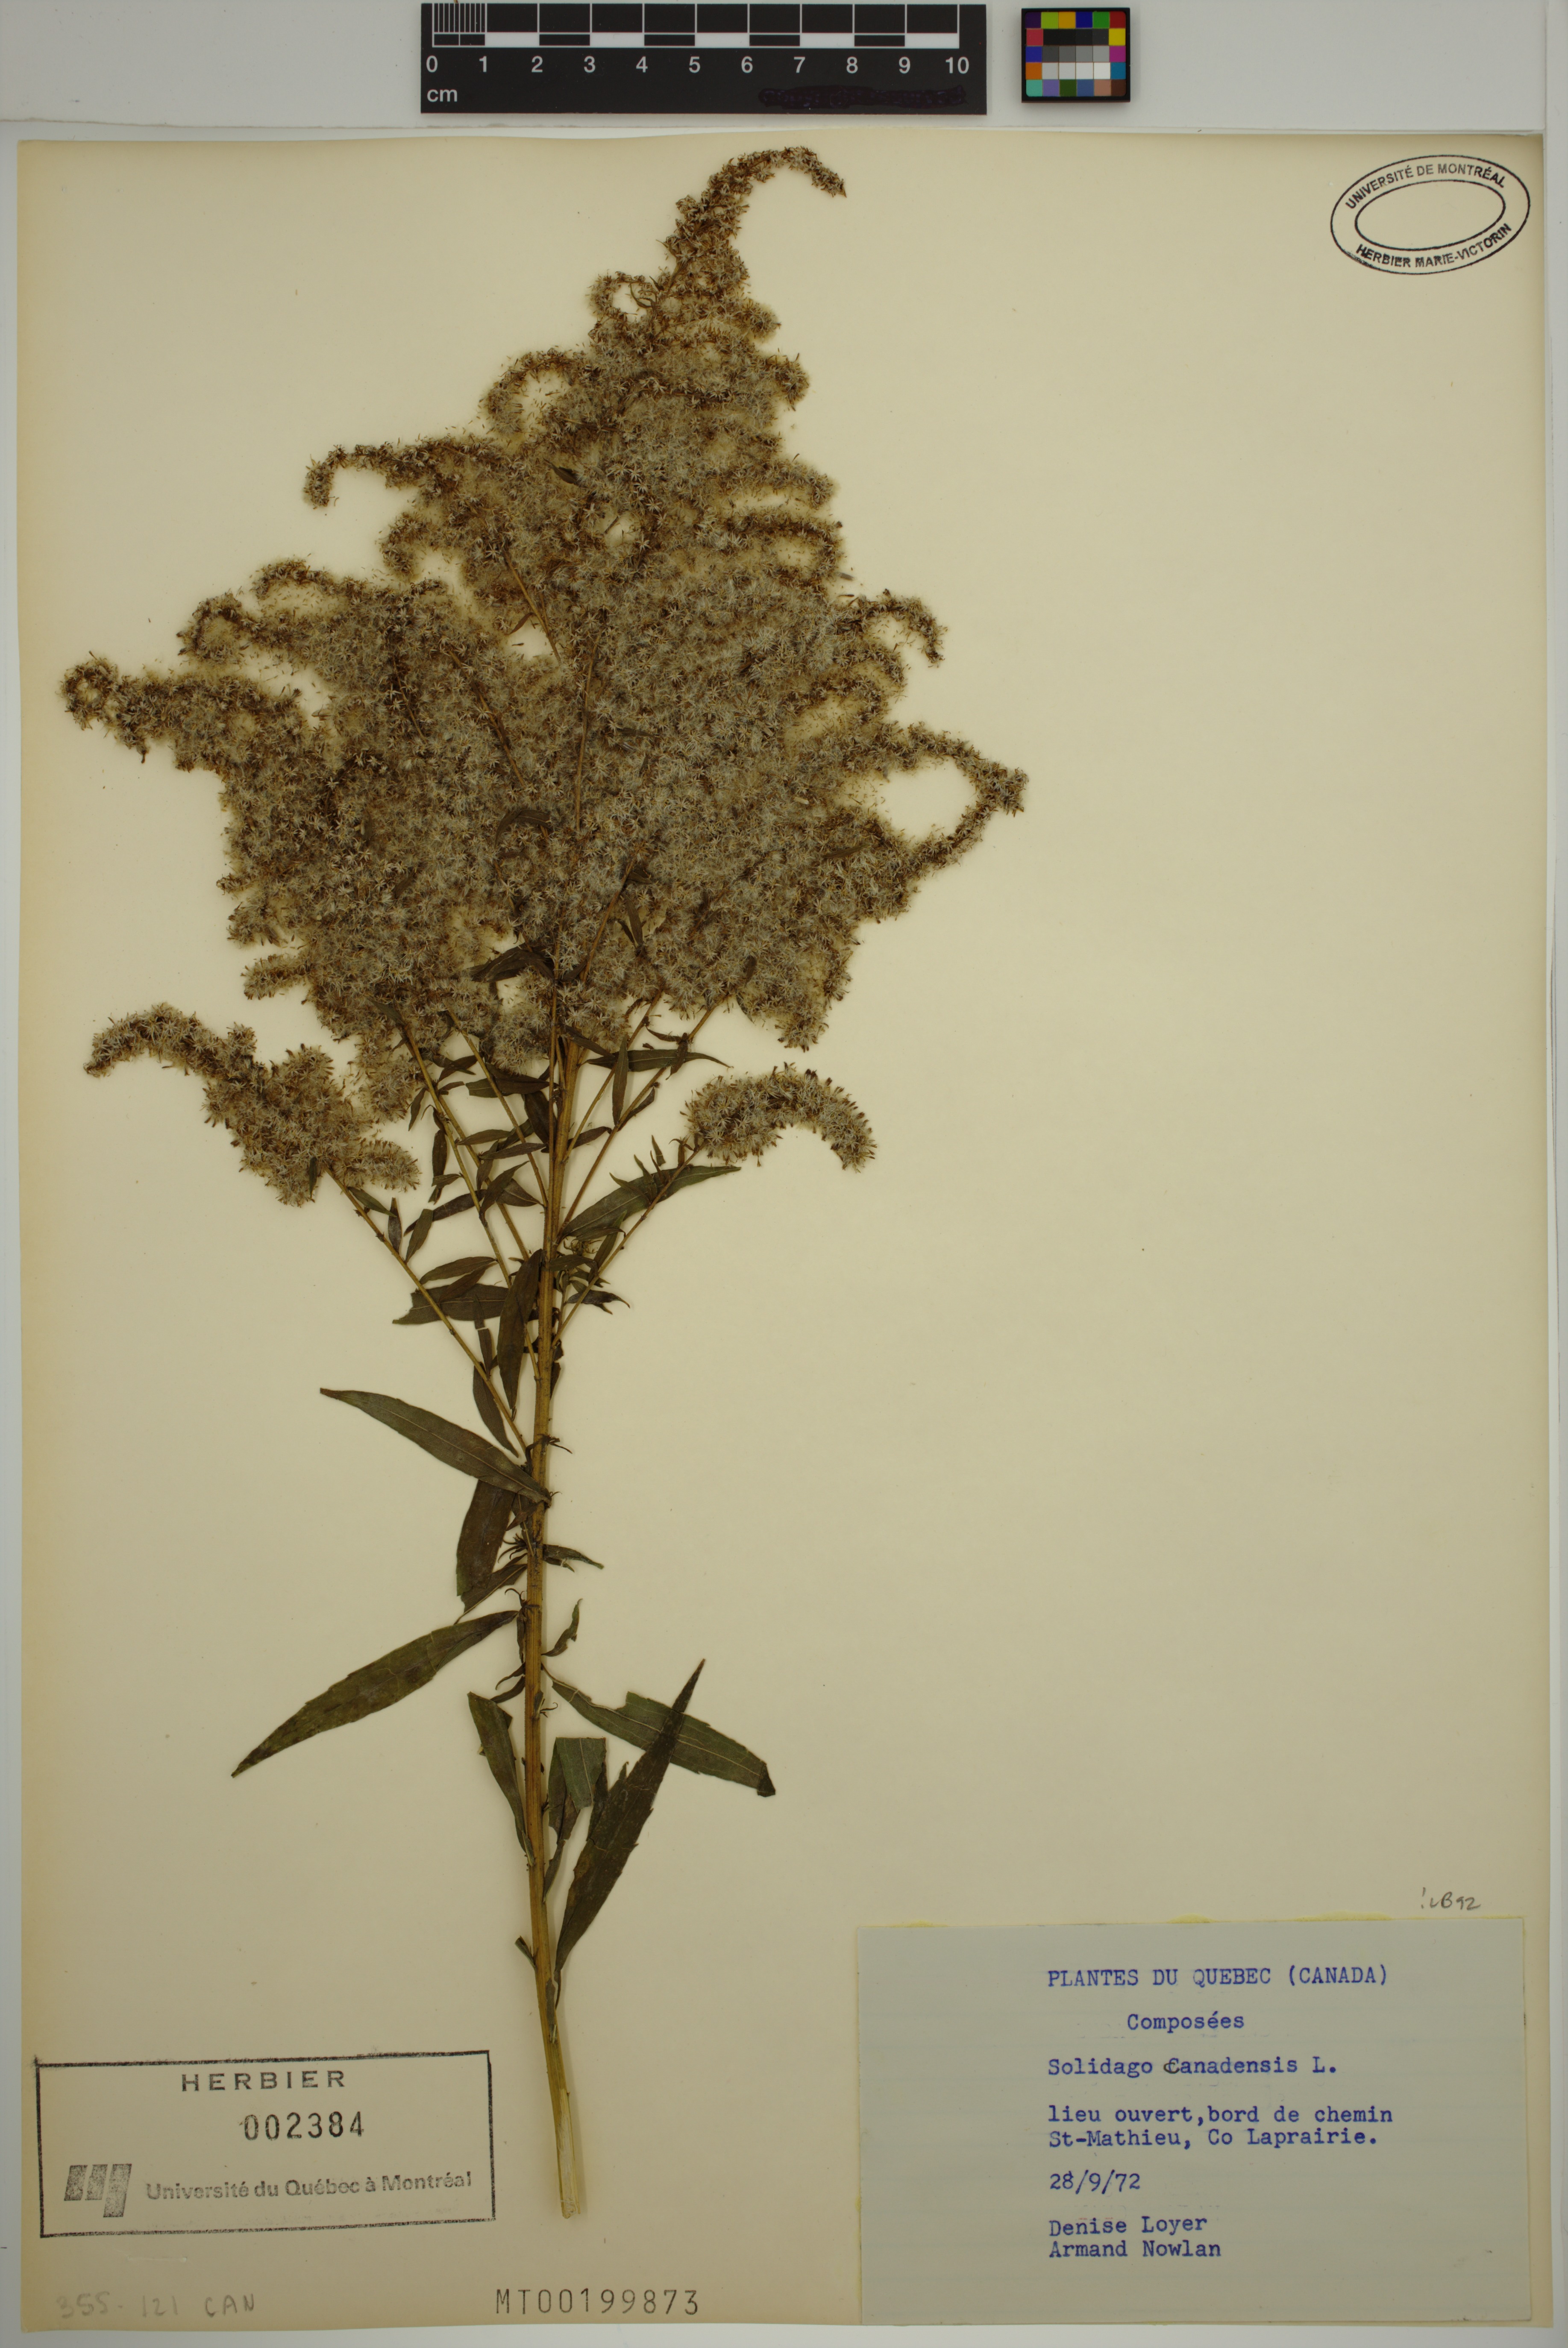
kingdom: Plantae
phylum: Tracheophyta
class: Magnoliopsida
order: Asterales
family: Asteraceae
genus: Solidago
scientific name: Solidago canadensis
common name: Canada goldenrod
